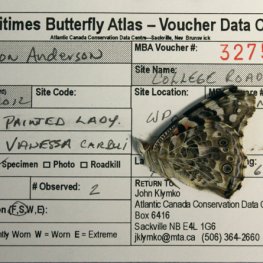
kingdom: Animalia
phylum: Arthropoda
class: Insecta
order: Lepidoptera
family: Nymphalidae
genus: Vanessa
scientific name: Vanessa cardui
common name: Painted Lady
